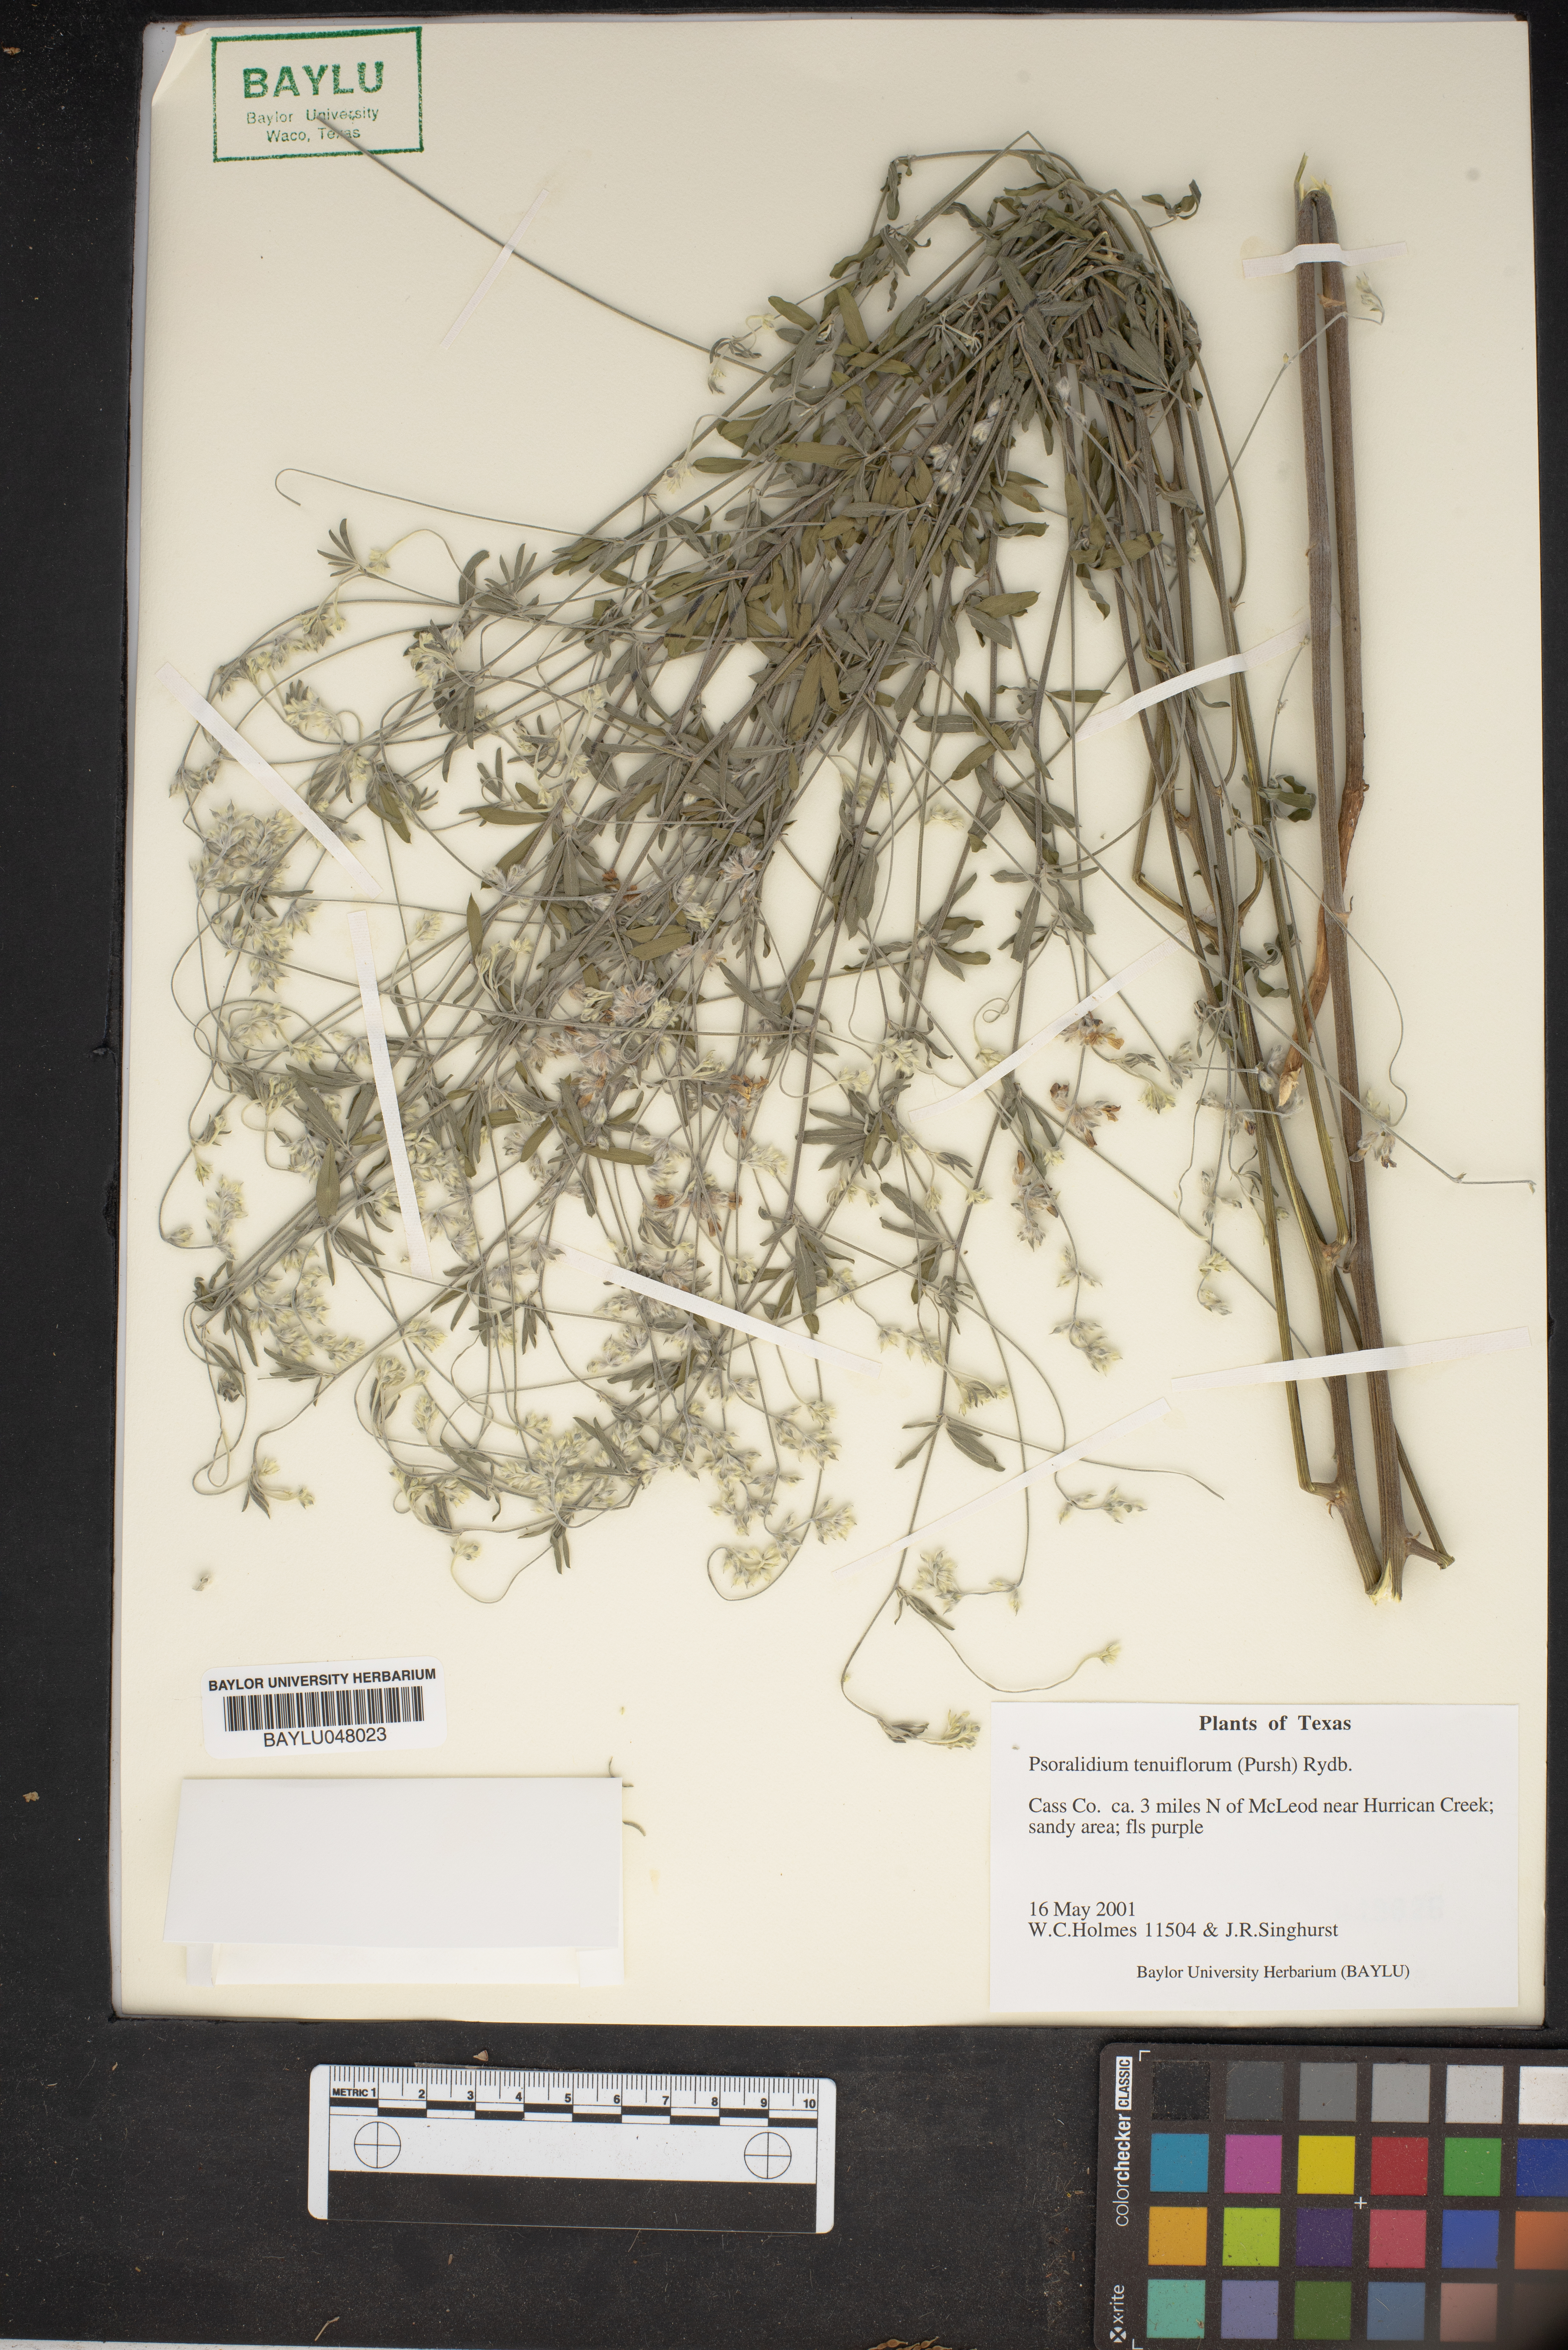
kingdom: Plantae
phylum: Tracheophyta
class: Magnoliopsida
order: Fabales
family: Fabaceae
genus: Pediomelum
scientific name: Pediomelum tenuiflorum
